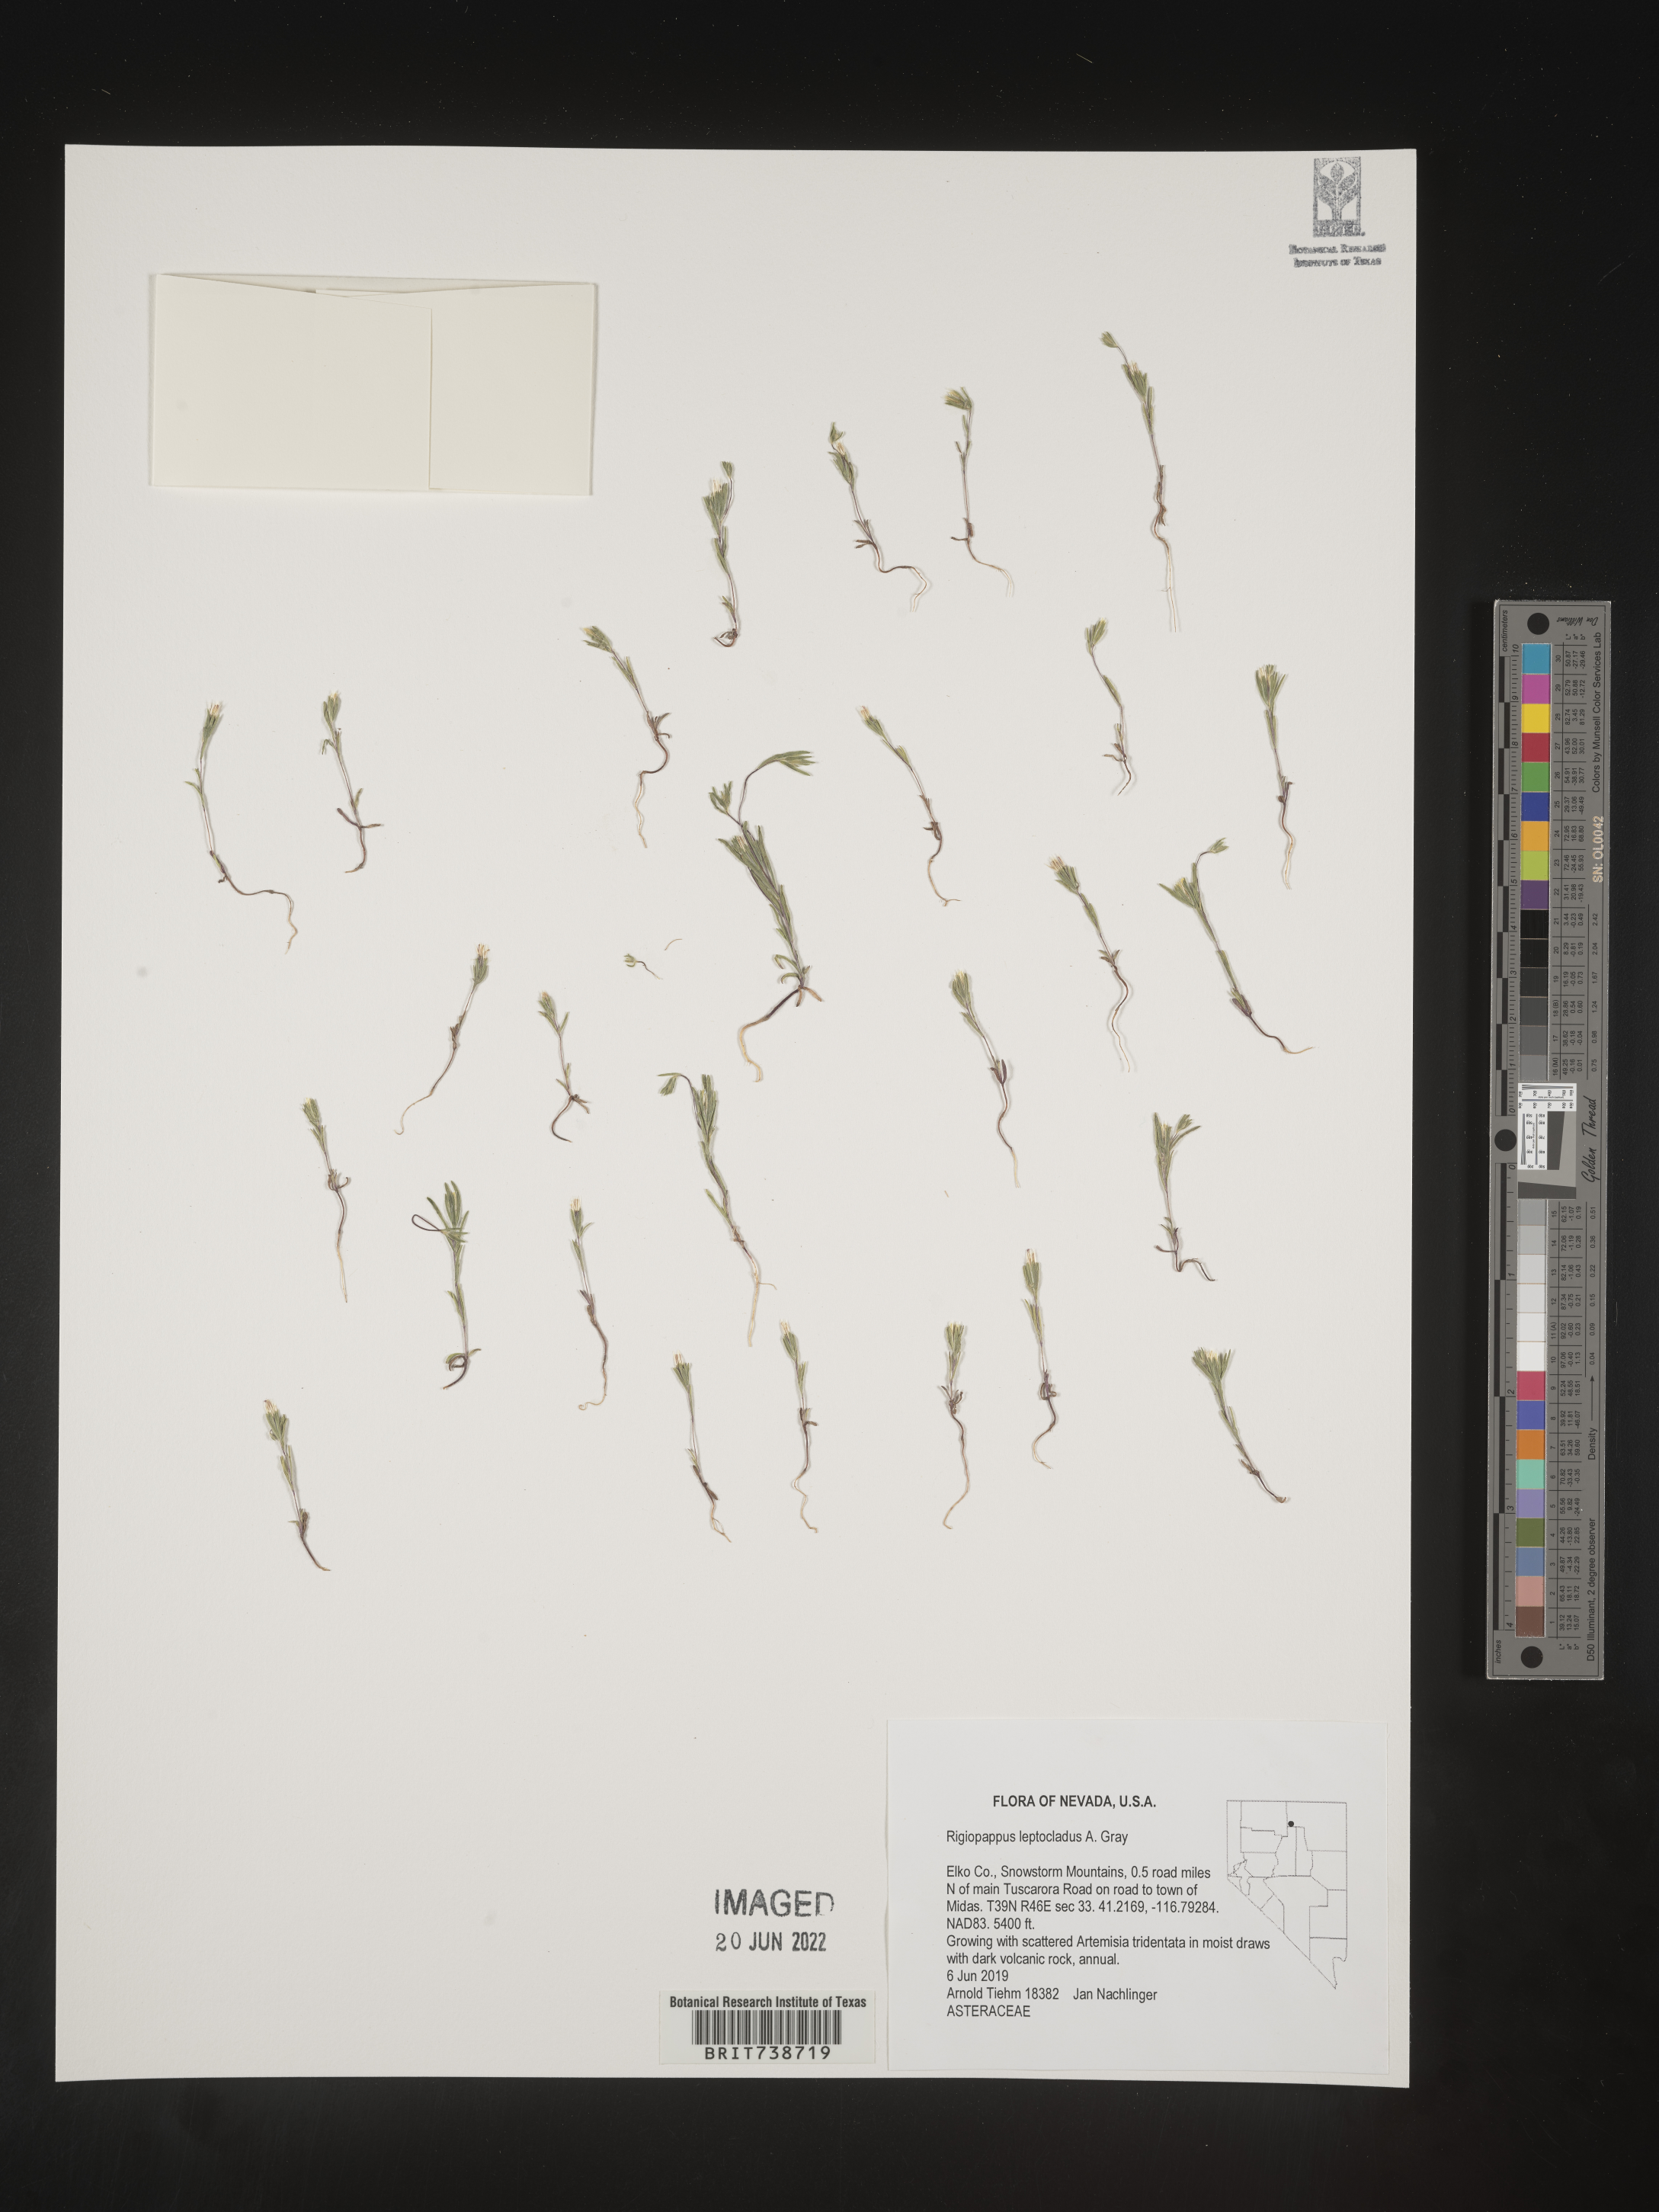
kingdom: Plantae
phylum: Tracheophyta
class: Magnoliopsida
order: Asterales
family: Asteraceae
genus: Rigiopappus
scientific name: Rigiopappus
